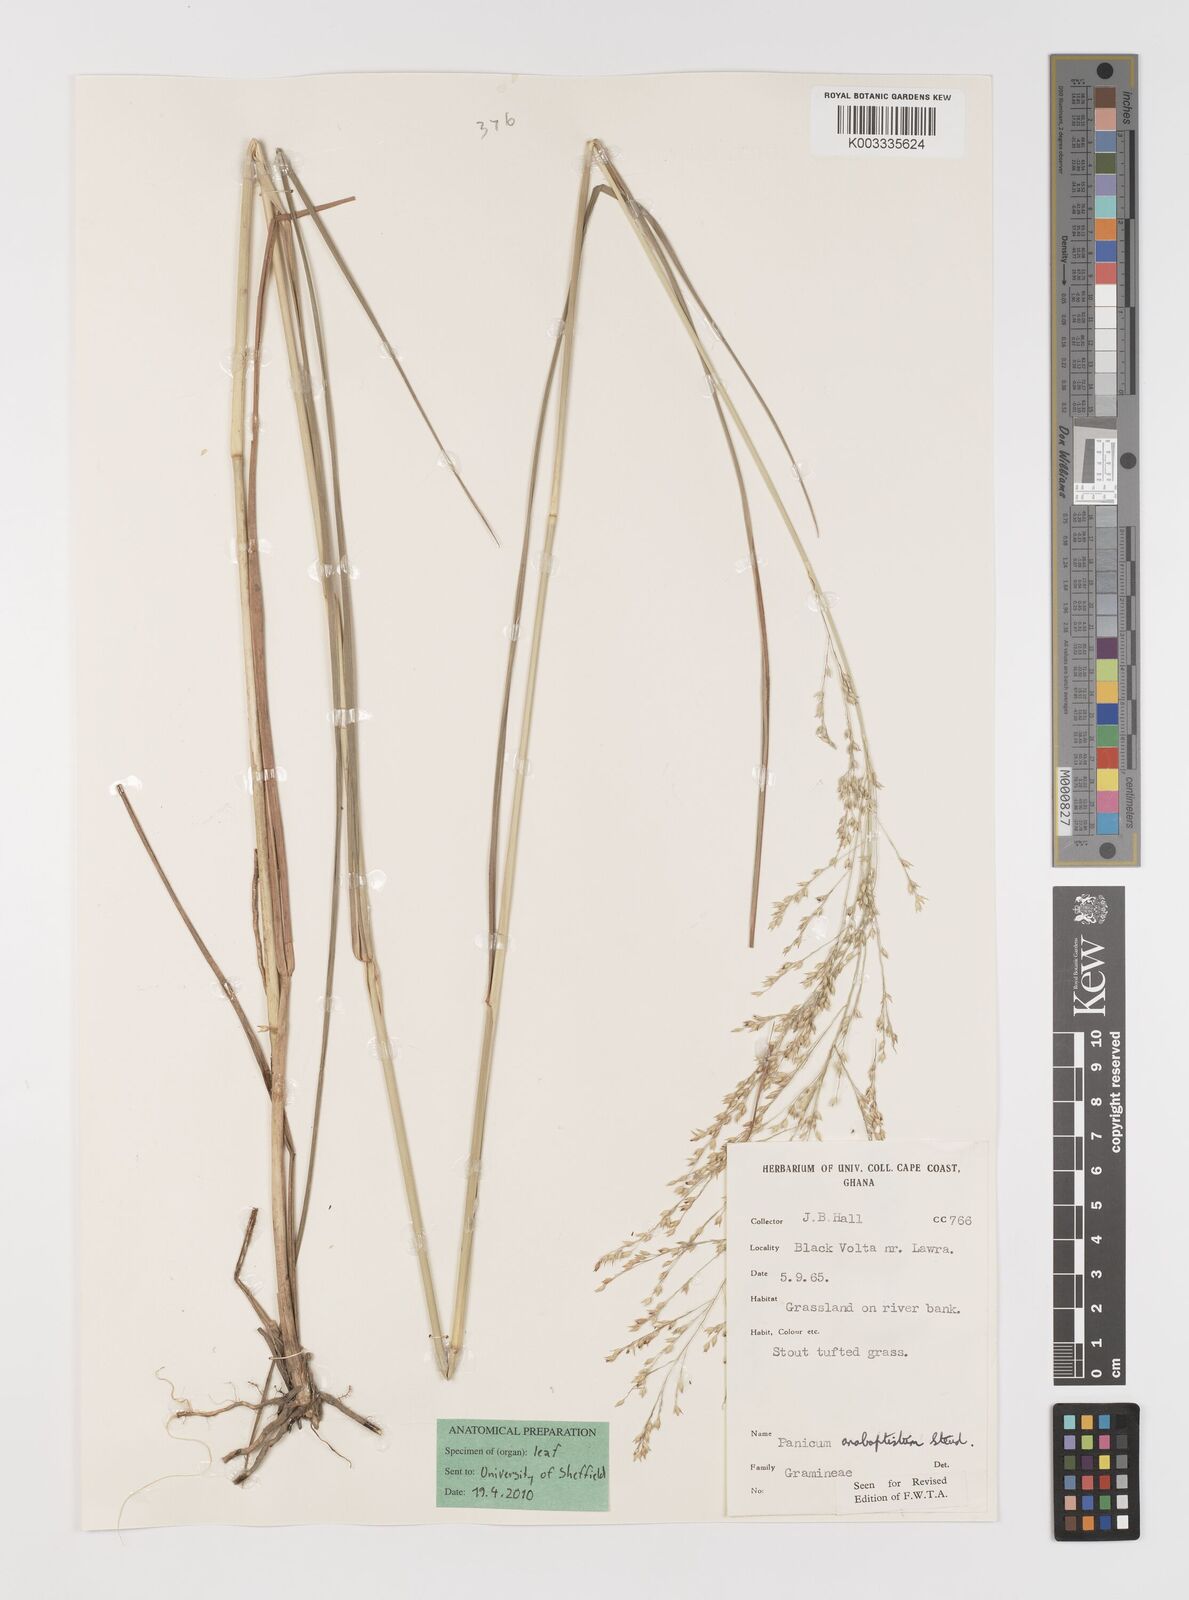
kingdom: Plantae
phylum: Tracheophyta
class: Liliopsida
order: Poales
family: Poaceae
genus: Panicum
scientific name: Panicum anabaptistum
